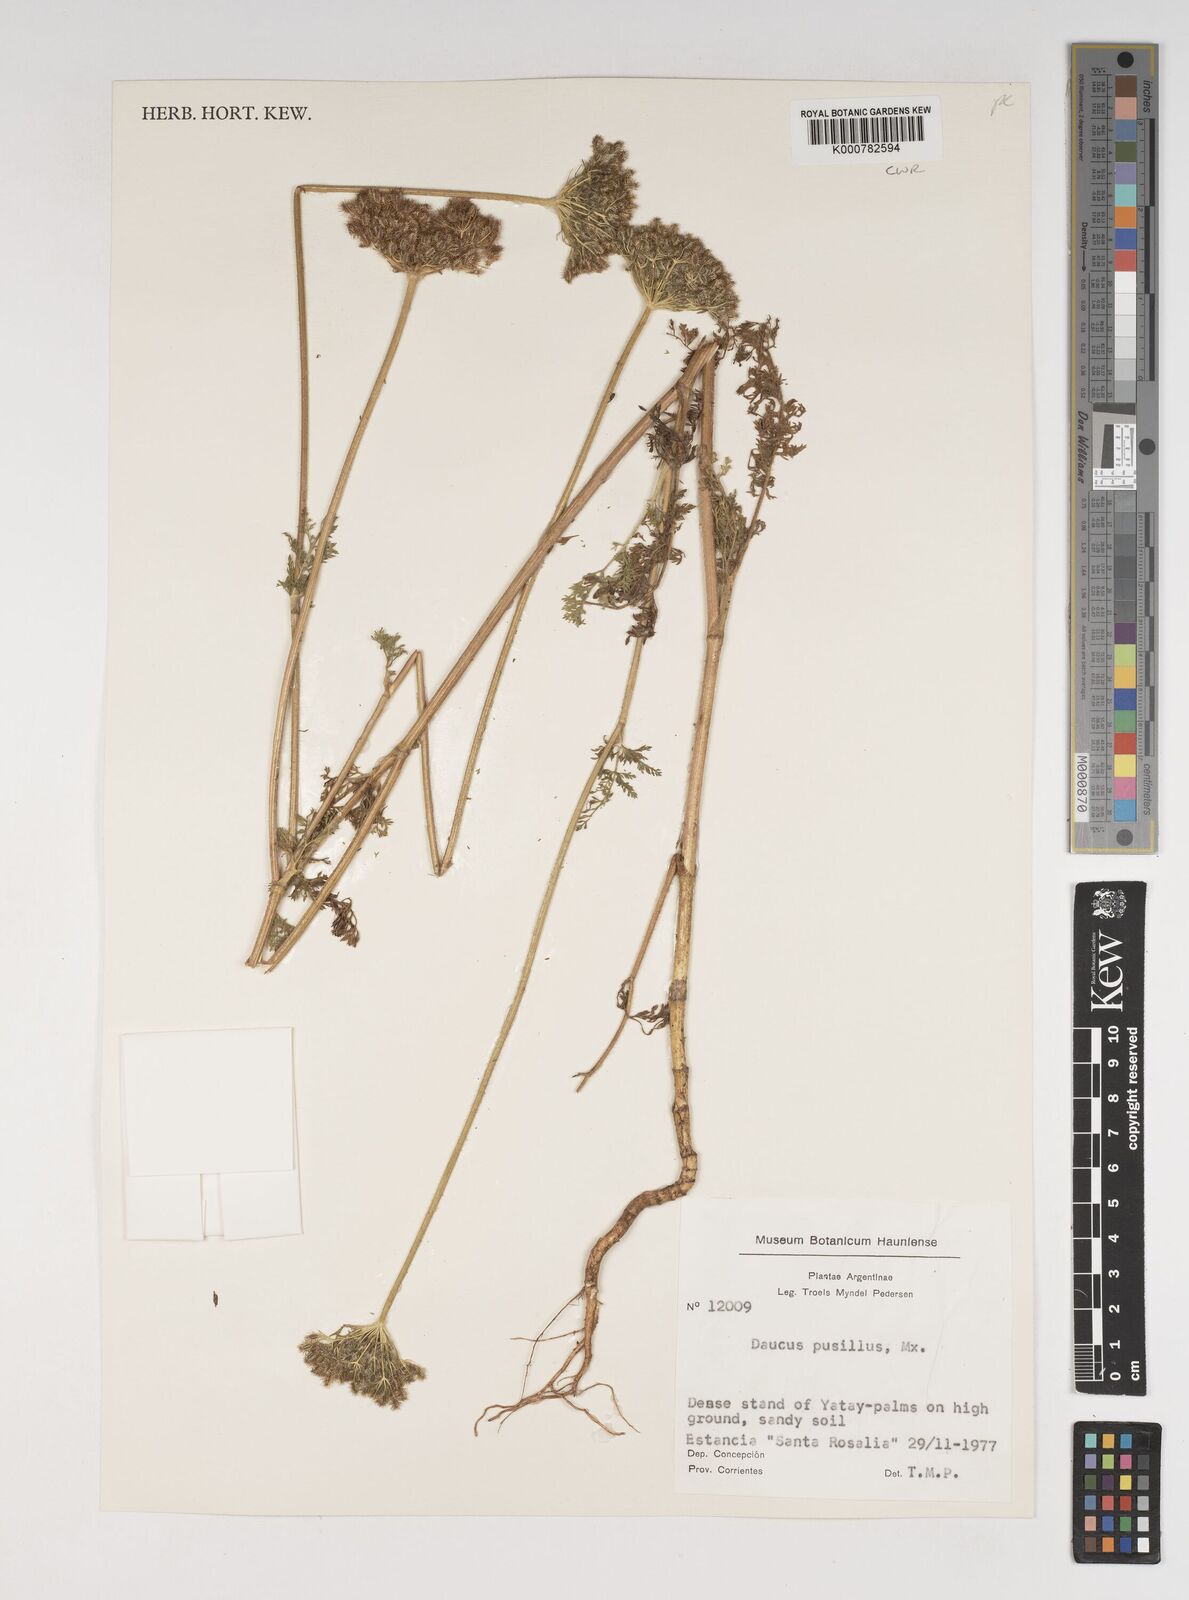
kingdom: Plantae
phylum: Tracheophyta
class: Magnoliopsida
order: Apiales
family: Apiaceae
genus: Daucus
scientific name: Daucus pusillus
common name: Southwest wild carrot
